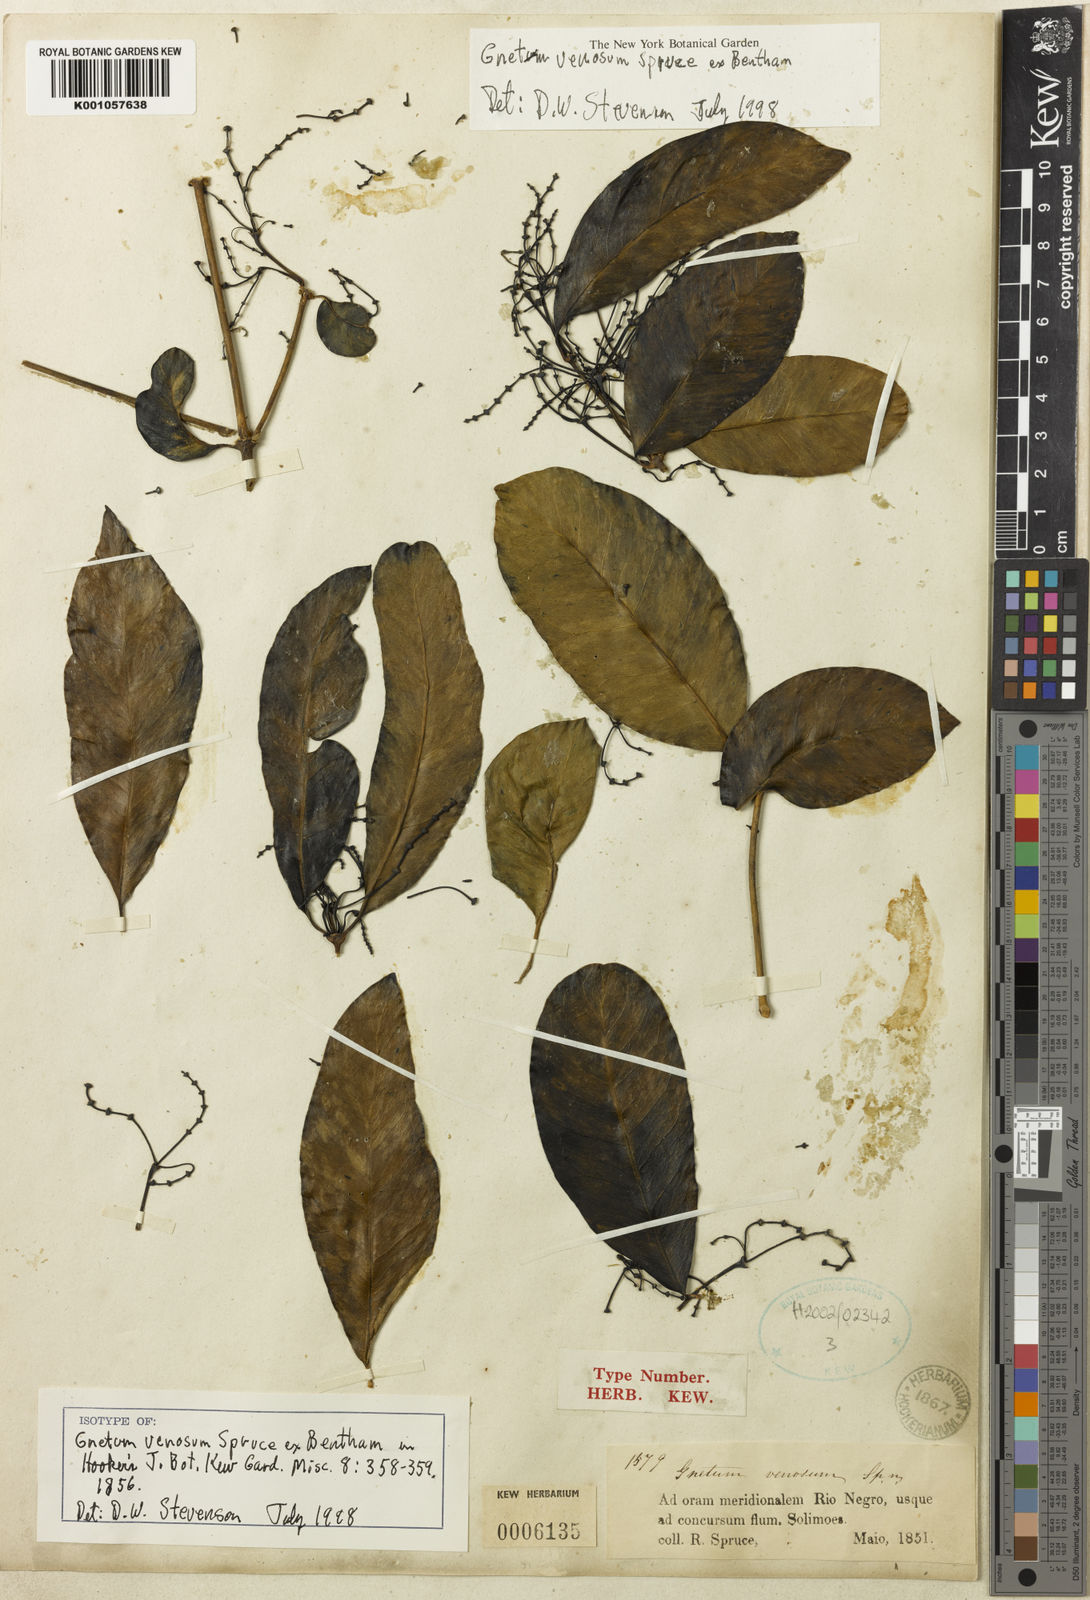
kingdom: Plantae
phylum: Tracheophyta
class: Gnetopsida
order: Gnetales
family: Gnetaceae
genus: Gnetum
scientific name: Gnetum venosum
